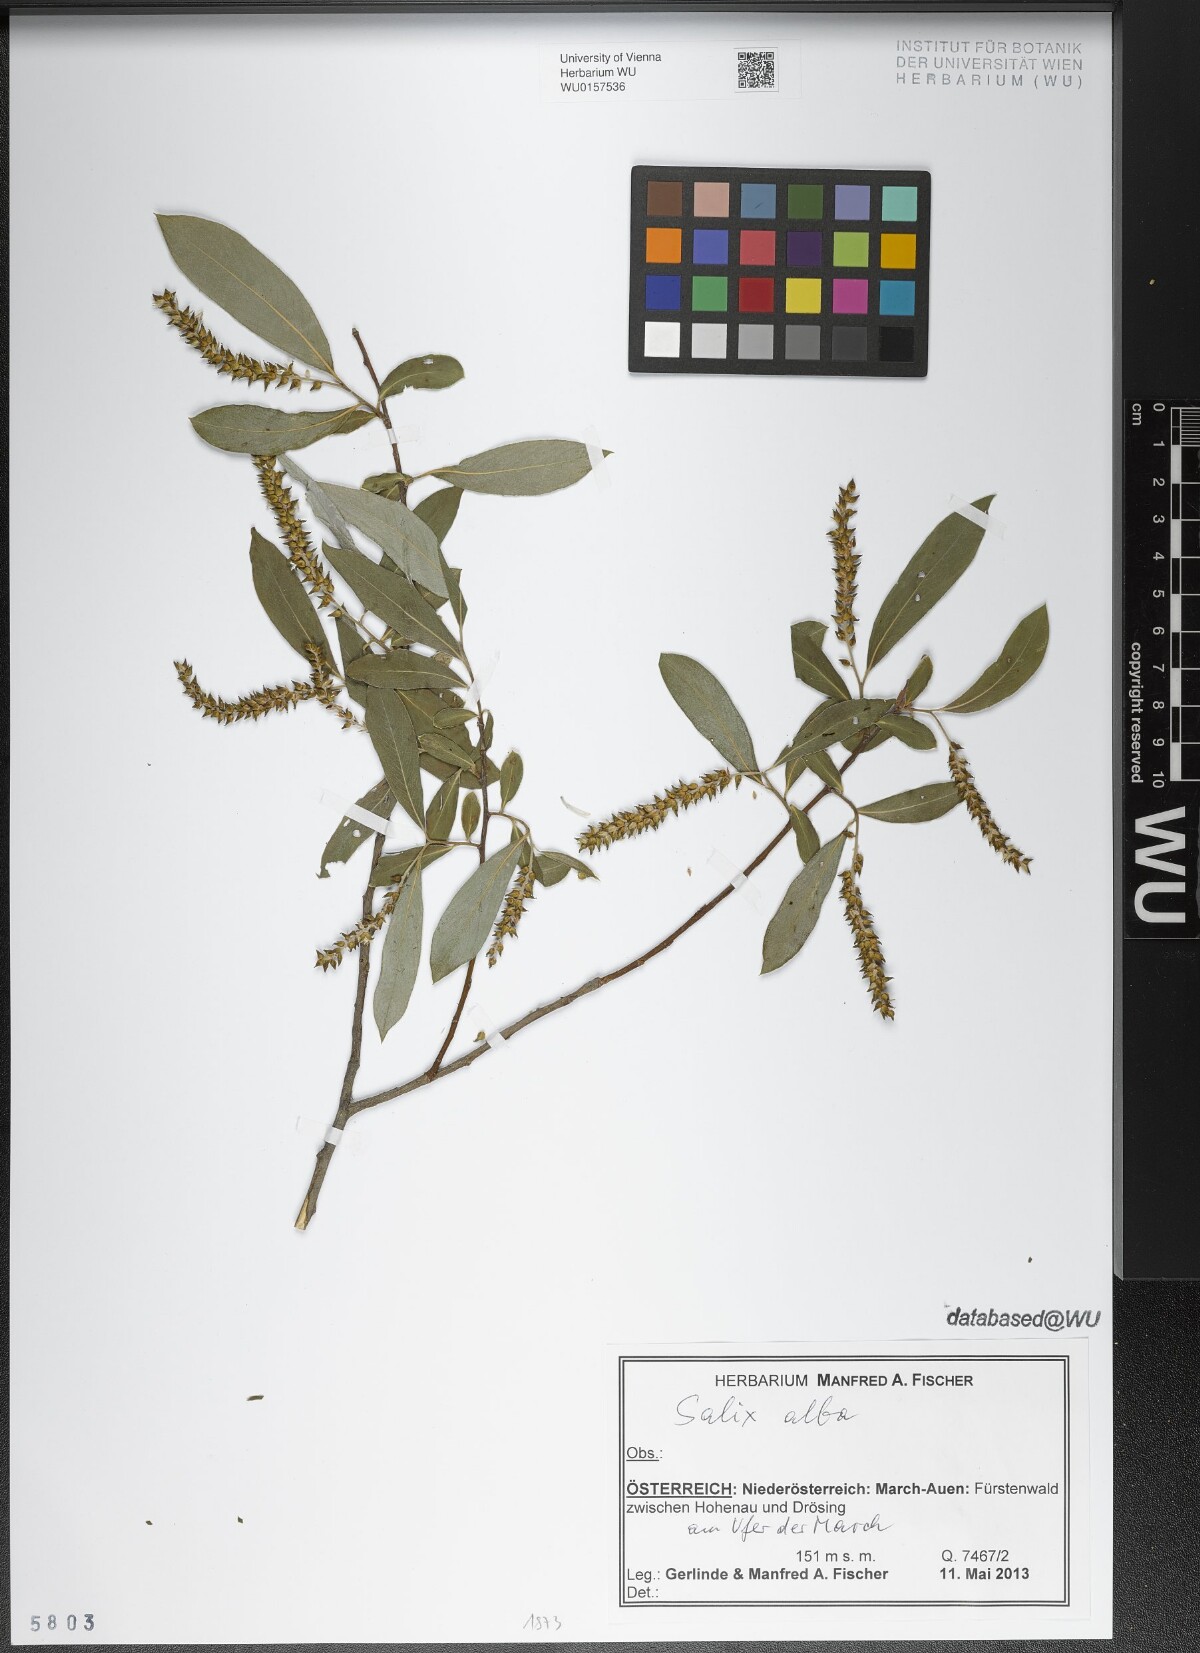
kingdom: Plantae
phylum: Tracheophyta
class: Magnoliopsida
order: Malpighiales
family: Salicaceae
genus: Salix
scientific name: Salix alba
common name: White willow
